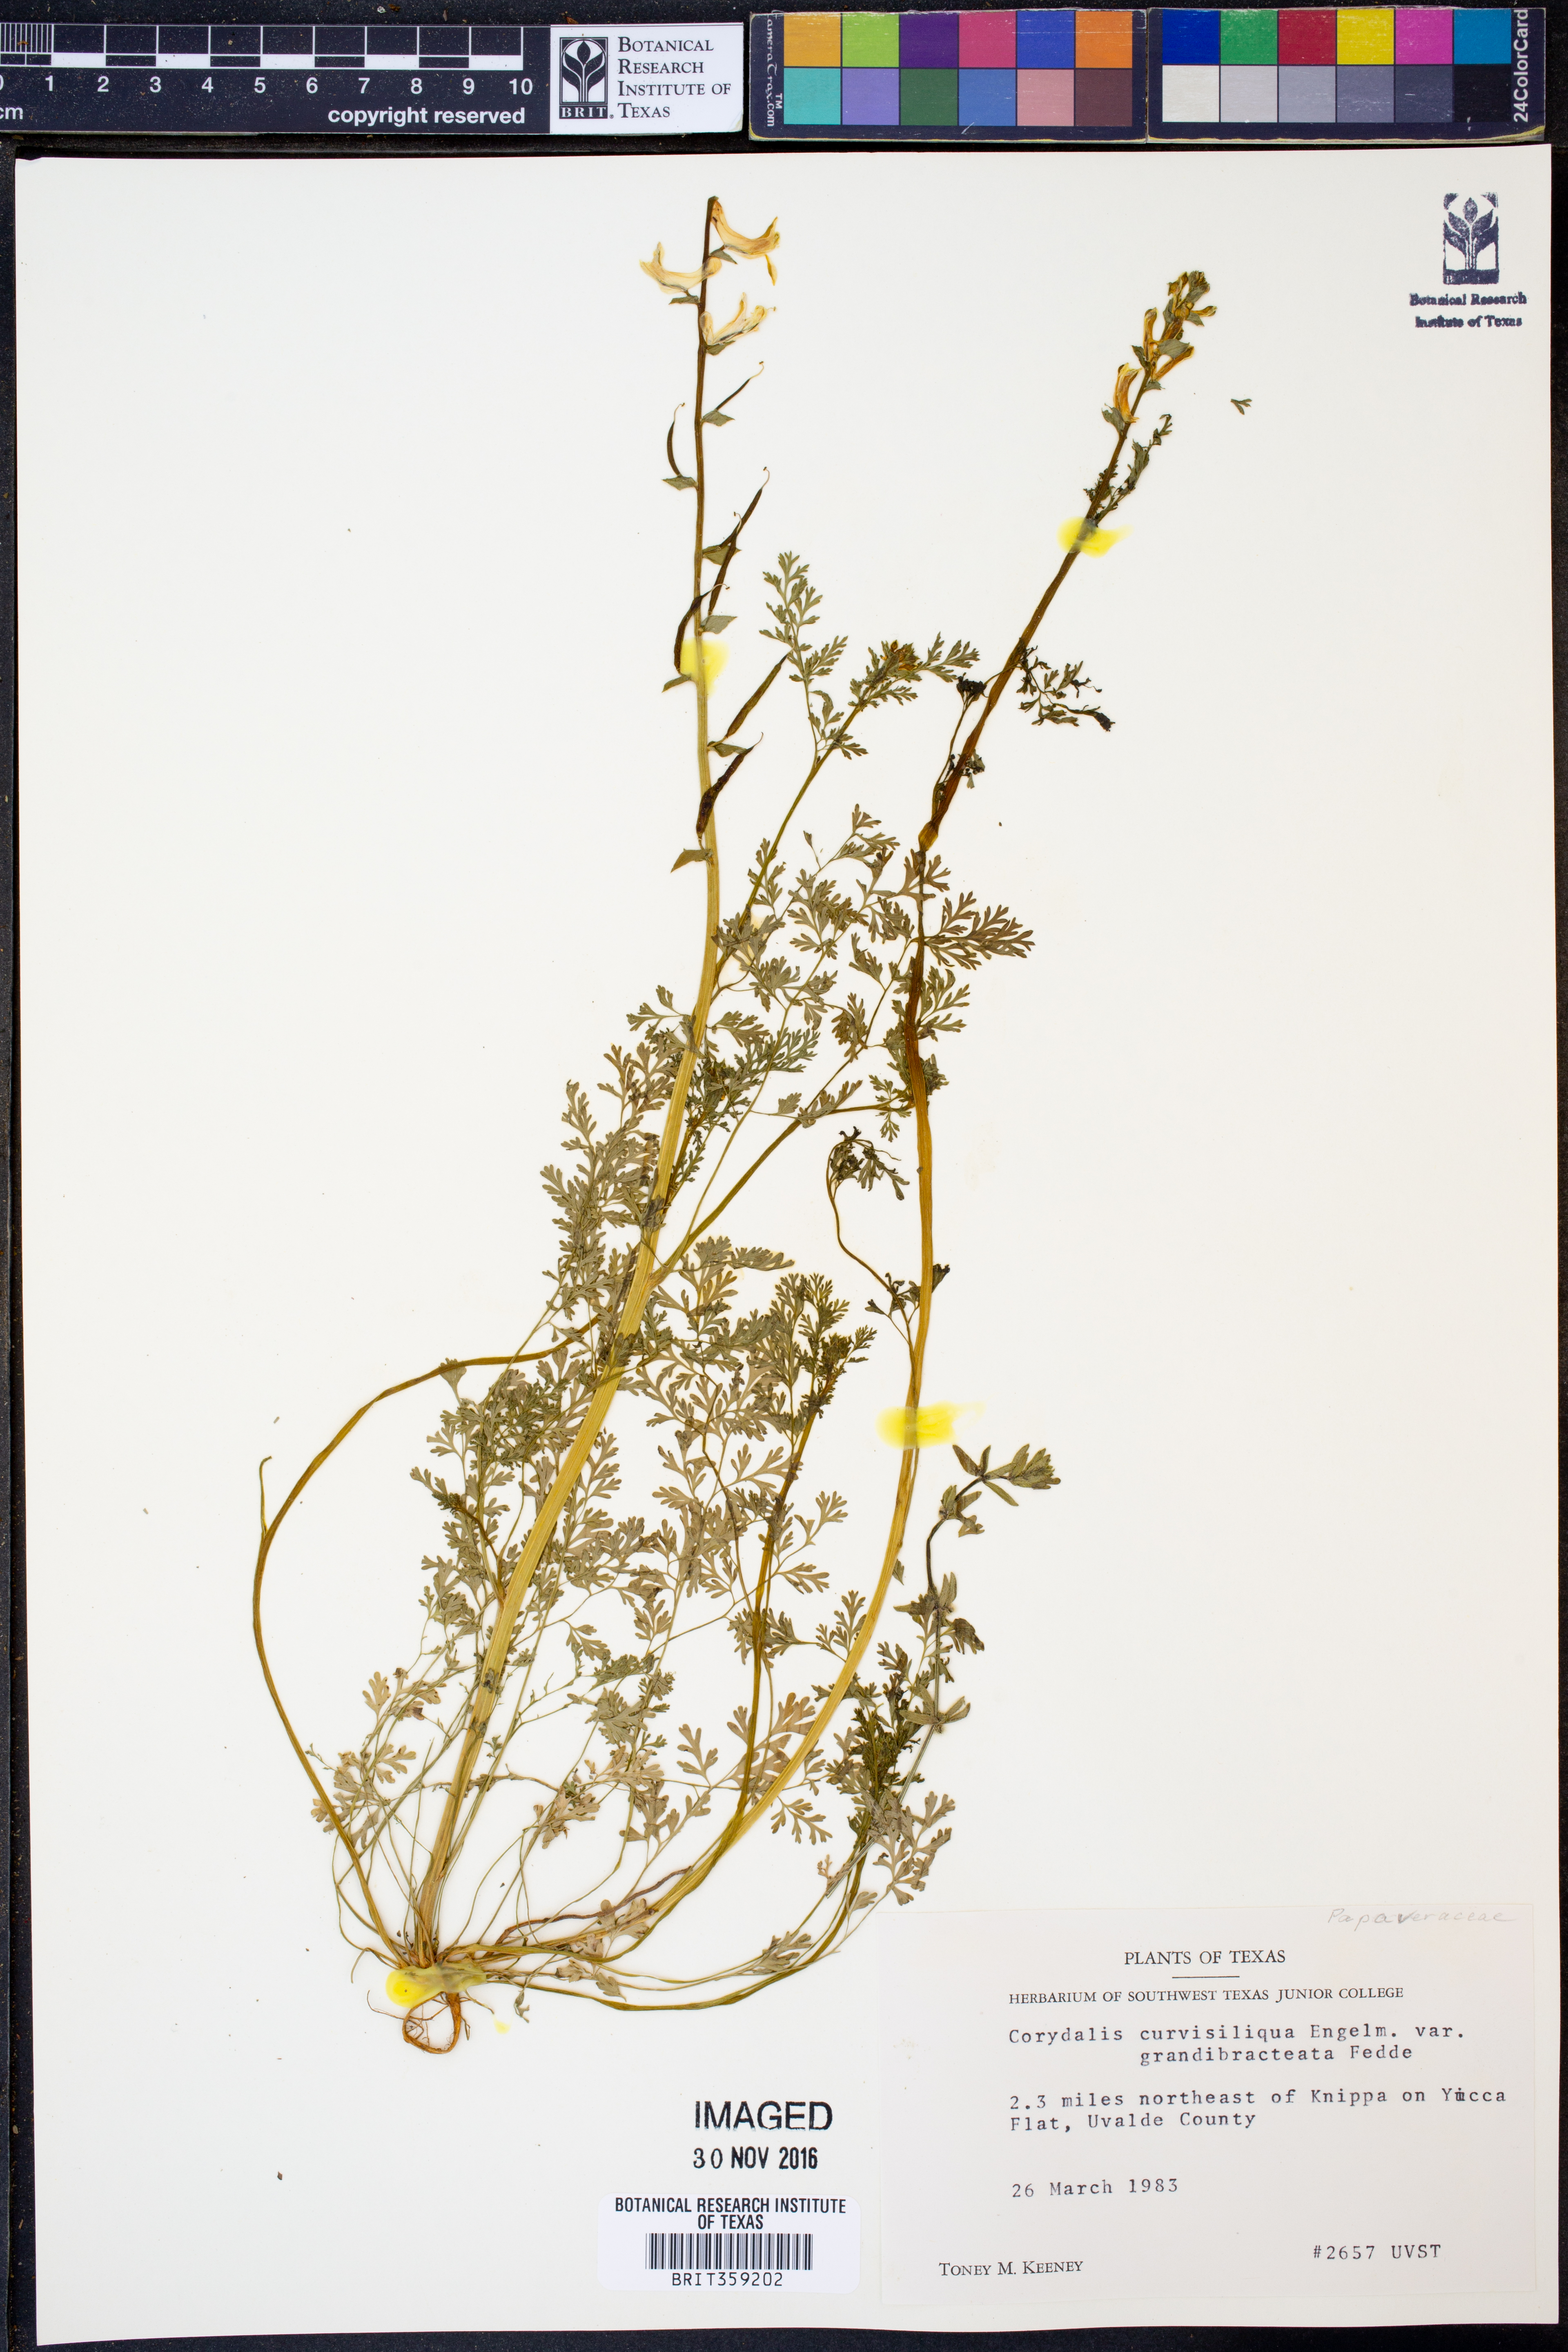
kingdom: Plantae
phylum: Tracheophyta
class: Magnoliopsida
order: Ranunculales
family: Papaveraceae
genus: Corydalis
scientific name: Corydalis curvisiliqua
